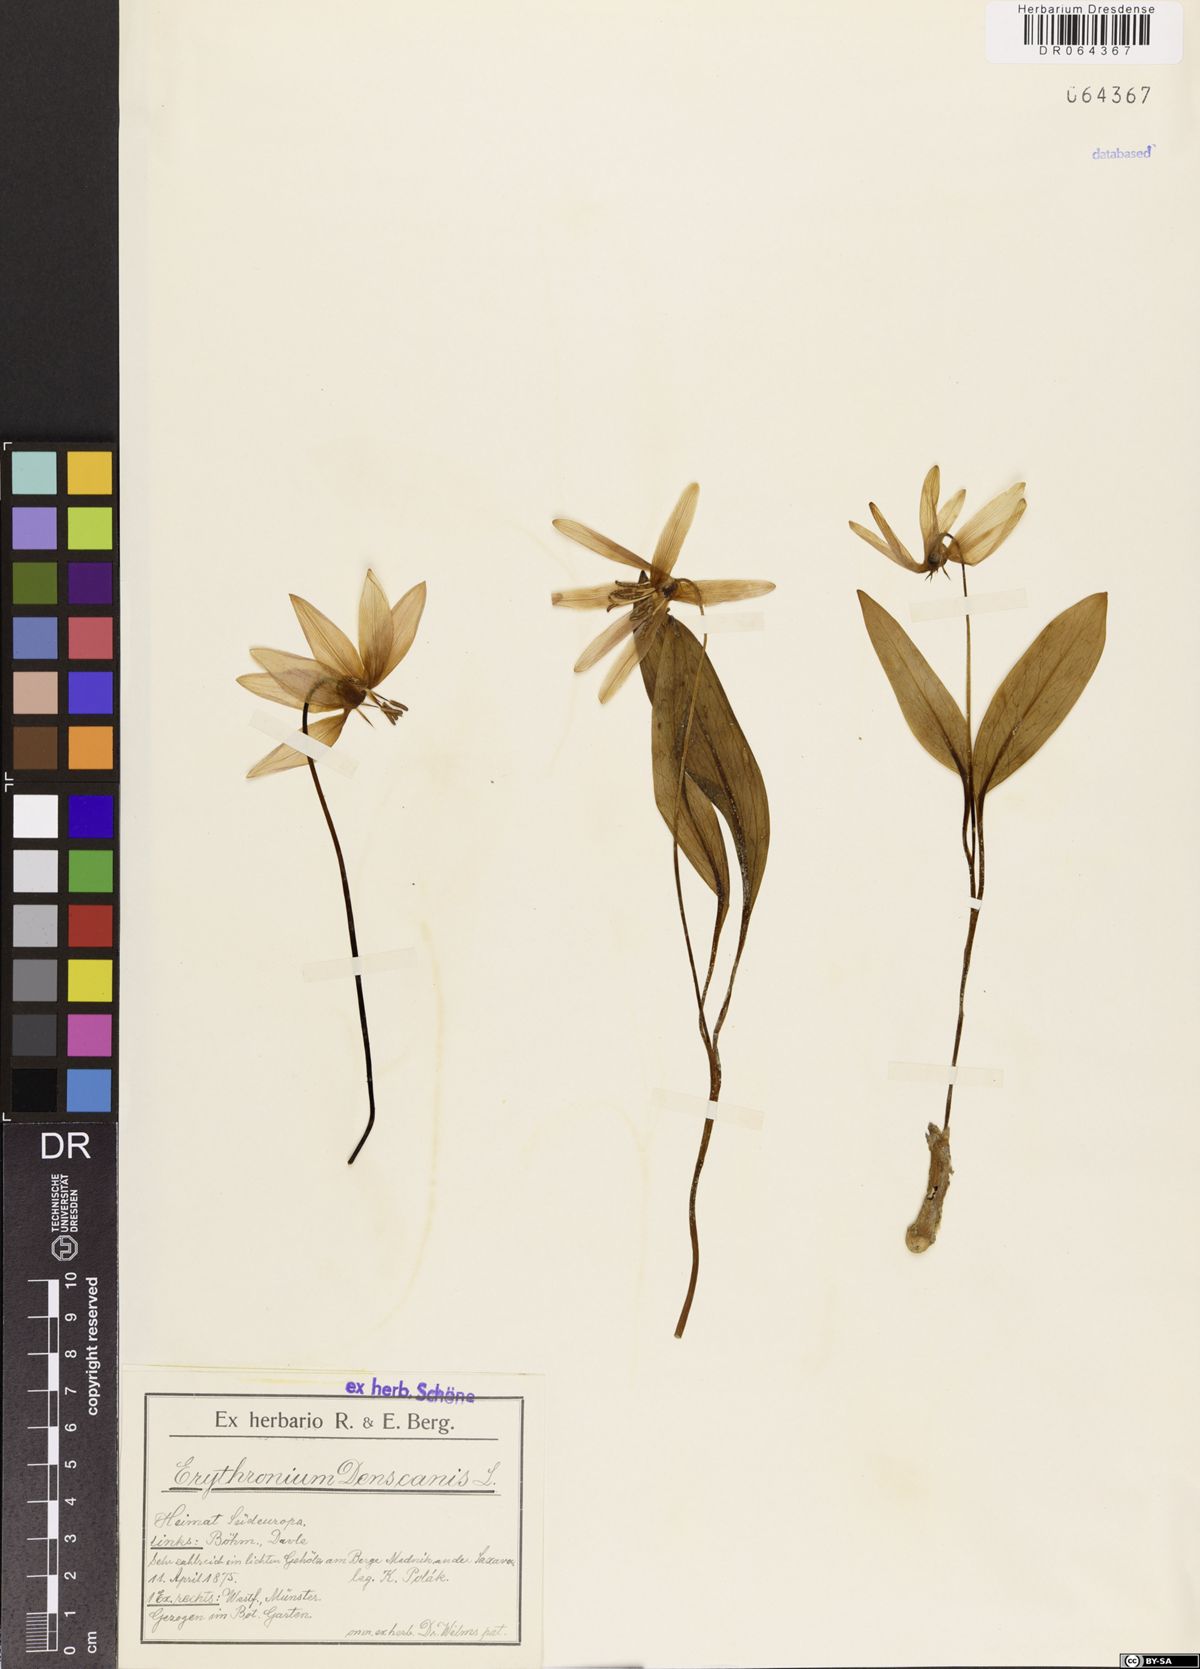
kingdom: Plantae
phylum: Tracheophyta
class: Liliopsida
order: Liliales
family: Liliaceae
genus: Erythronium
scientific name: Erythronium dens-canis
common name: Dog's-tooth-violet
